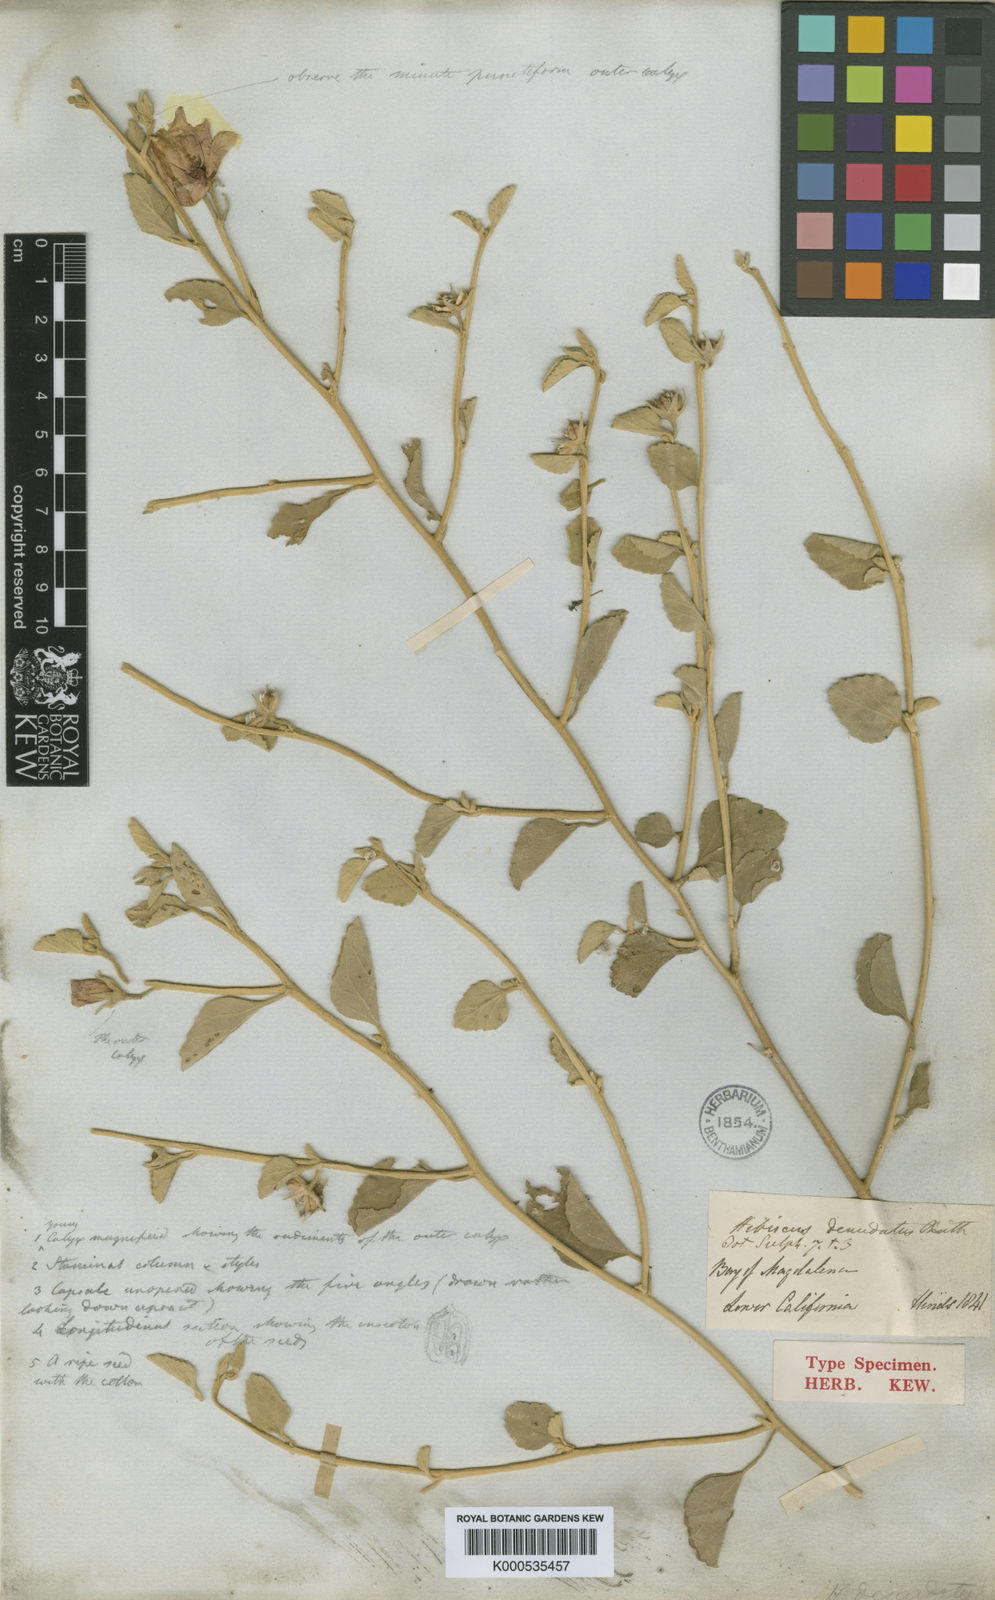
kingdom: Plantae
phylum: Tracheophyta
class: Magnoliopsida
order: Malvales
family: Malvaceae
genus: Hibiscus
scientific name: Hibiscus denudatus
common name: Paleface
